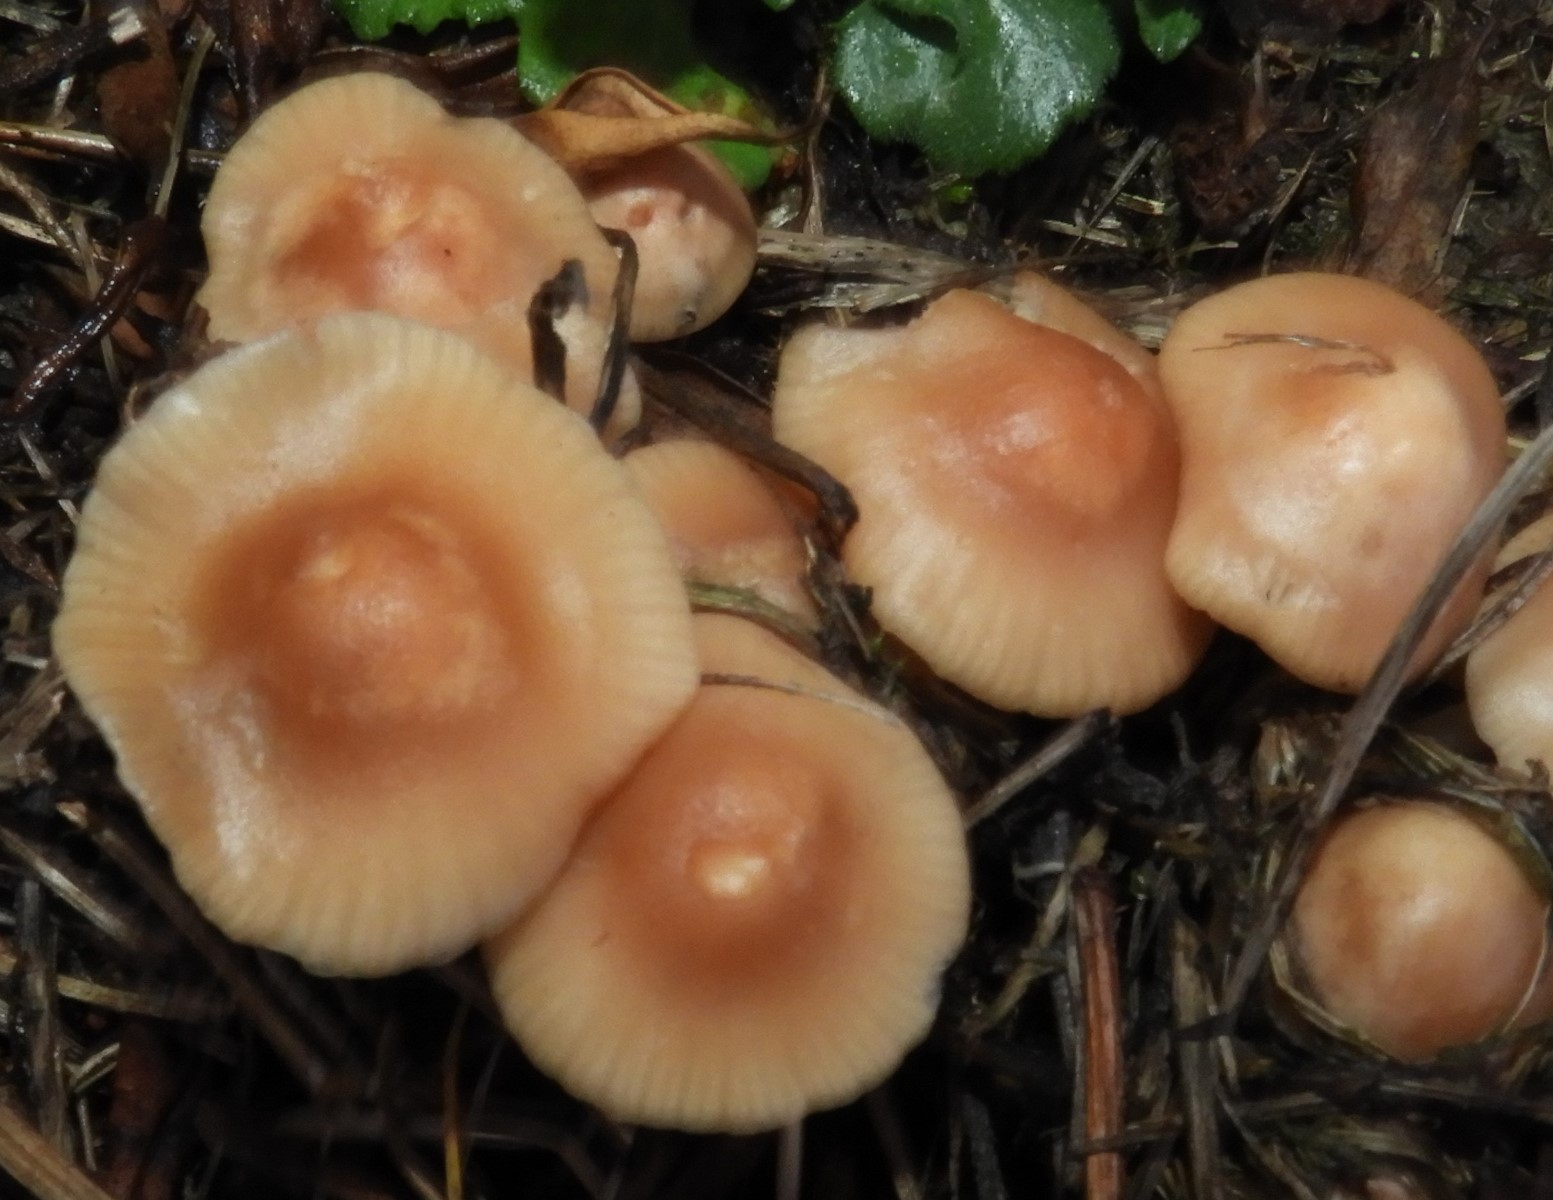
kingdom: Fungi
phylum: Basidiomycota
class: Agaricomycetes
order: Agaricales
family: Marasmiaceae
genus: Marasmius
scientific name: Marasmius oreades
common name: elledans-bruskhat
